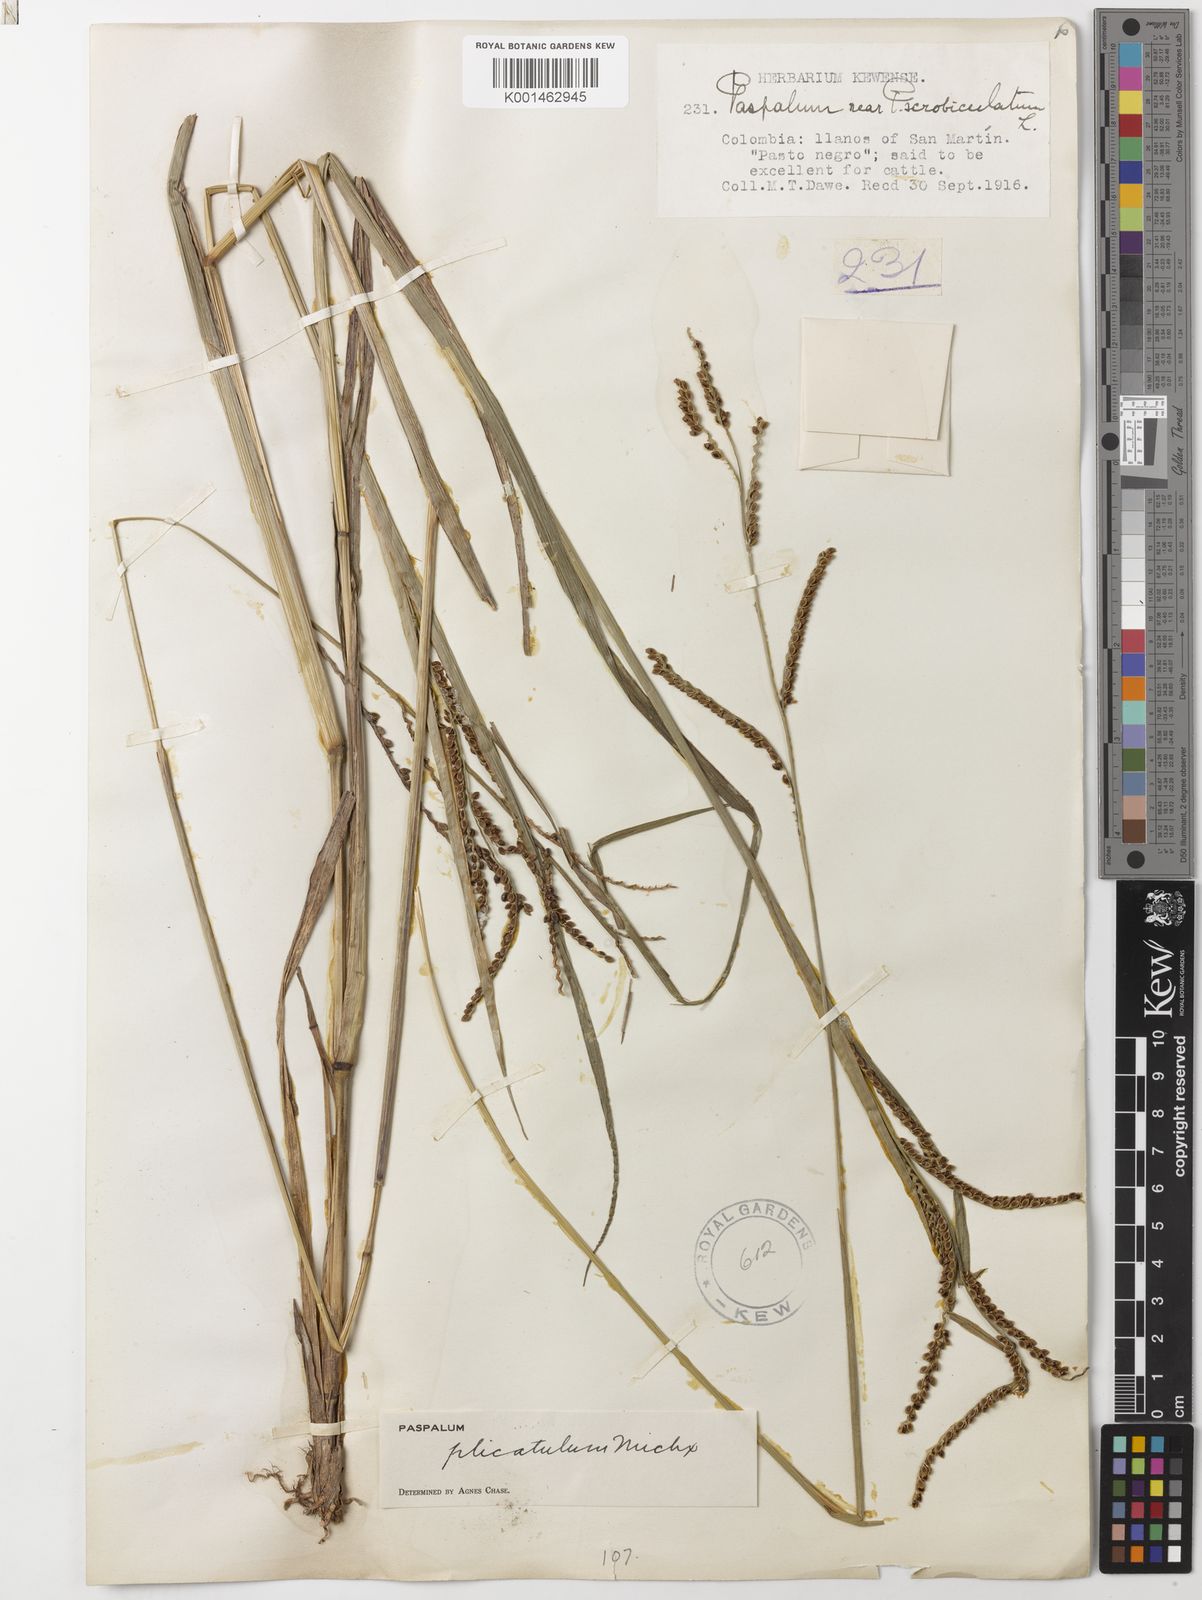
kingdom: Plantae
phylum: Tracheophyta
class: Liliopsida
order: Poales
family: Poaceae
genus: Paspalum
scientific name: Paspalum plicatulum
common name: Top paspalum
